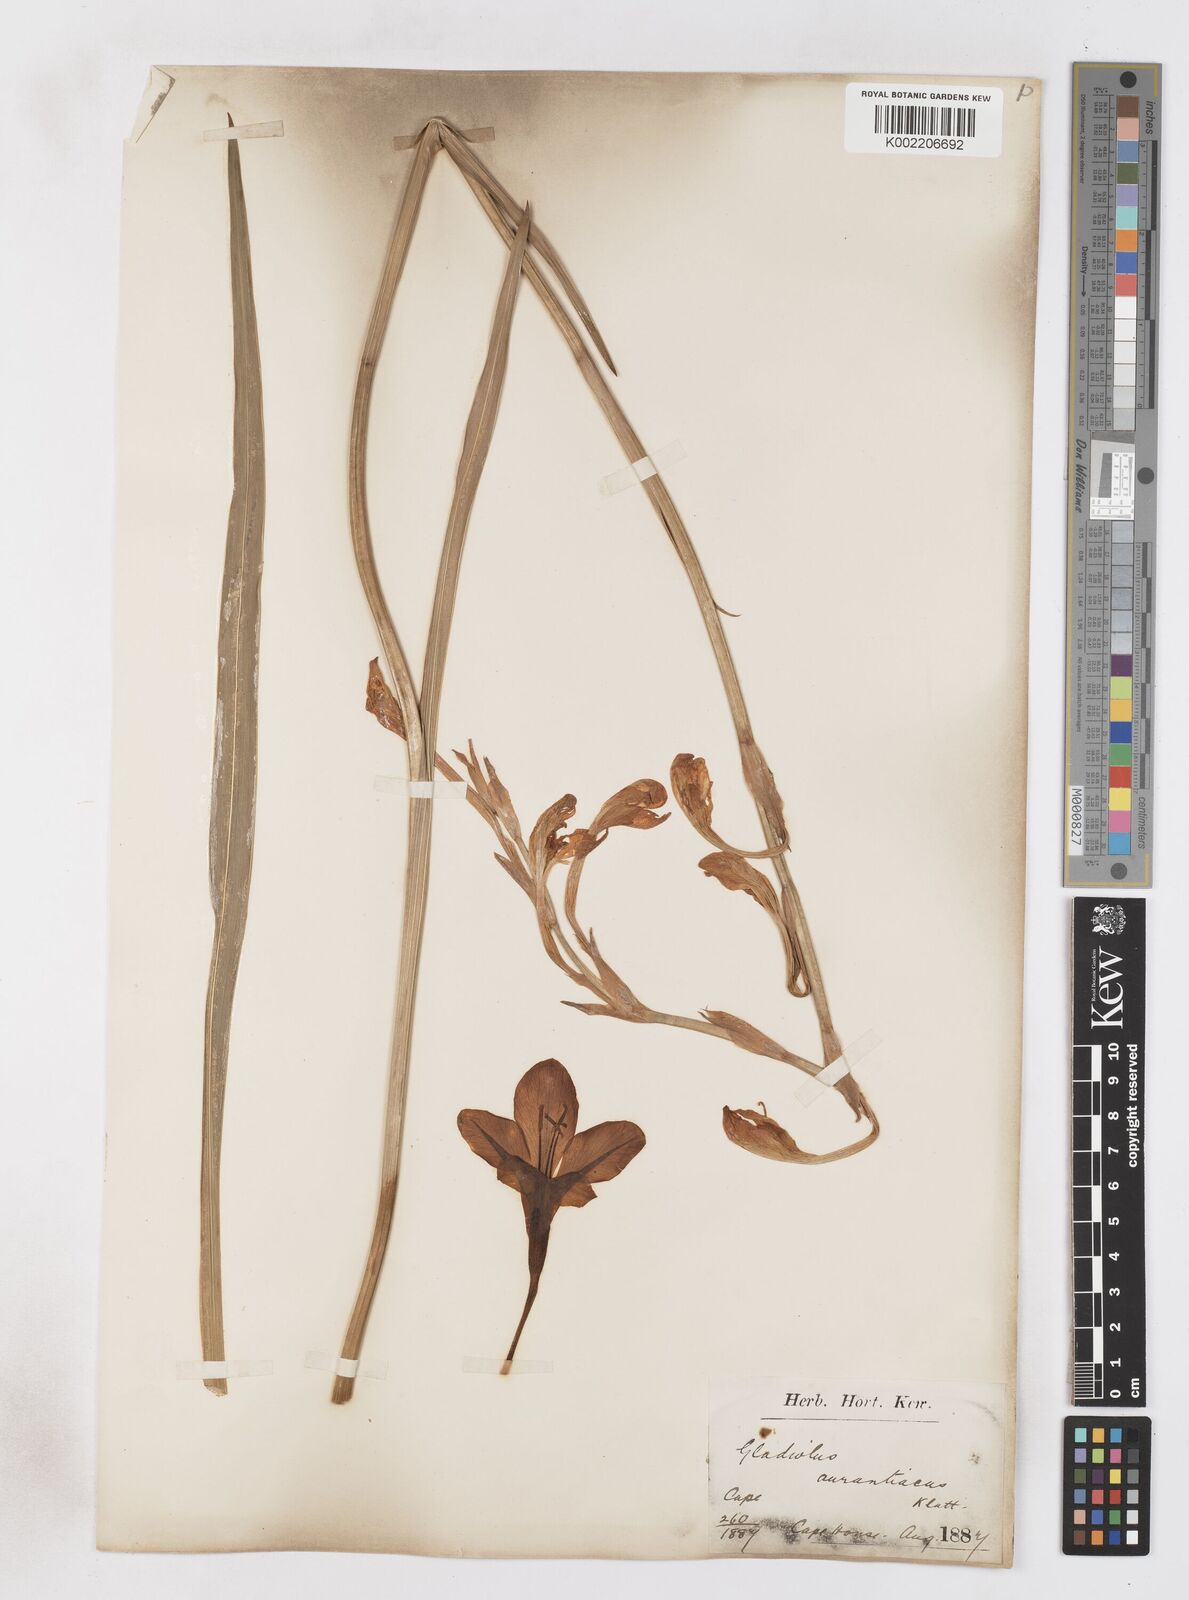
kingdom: Plantae
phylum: Tracheophyta
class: Liliopsida
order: Asparagales
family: Iridaceae
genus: Gladiolus
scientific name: Gladiolus aurantiacus
